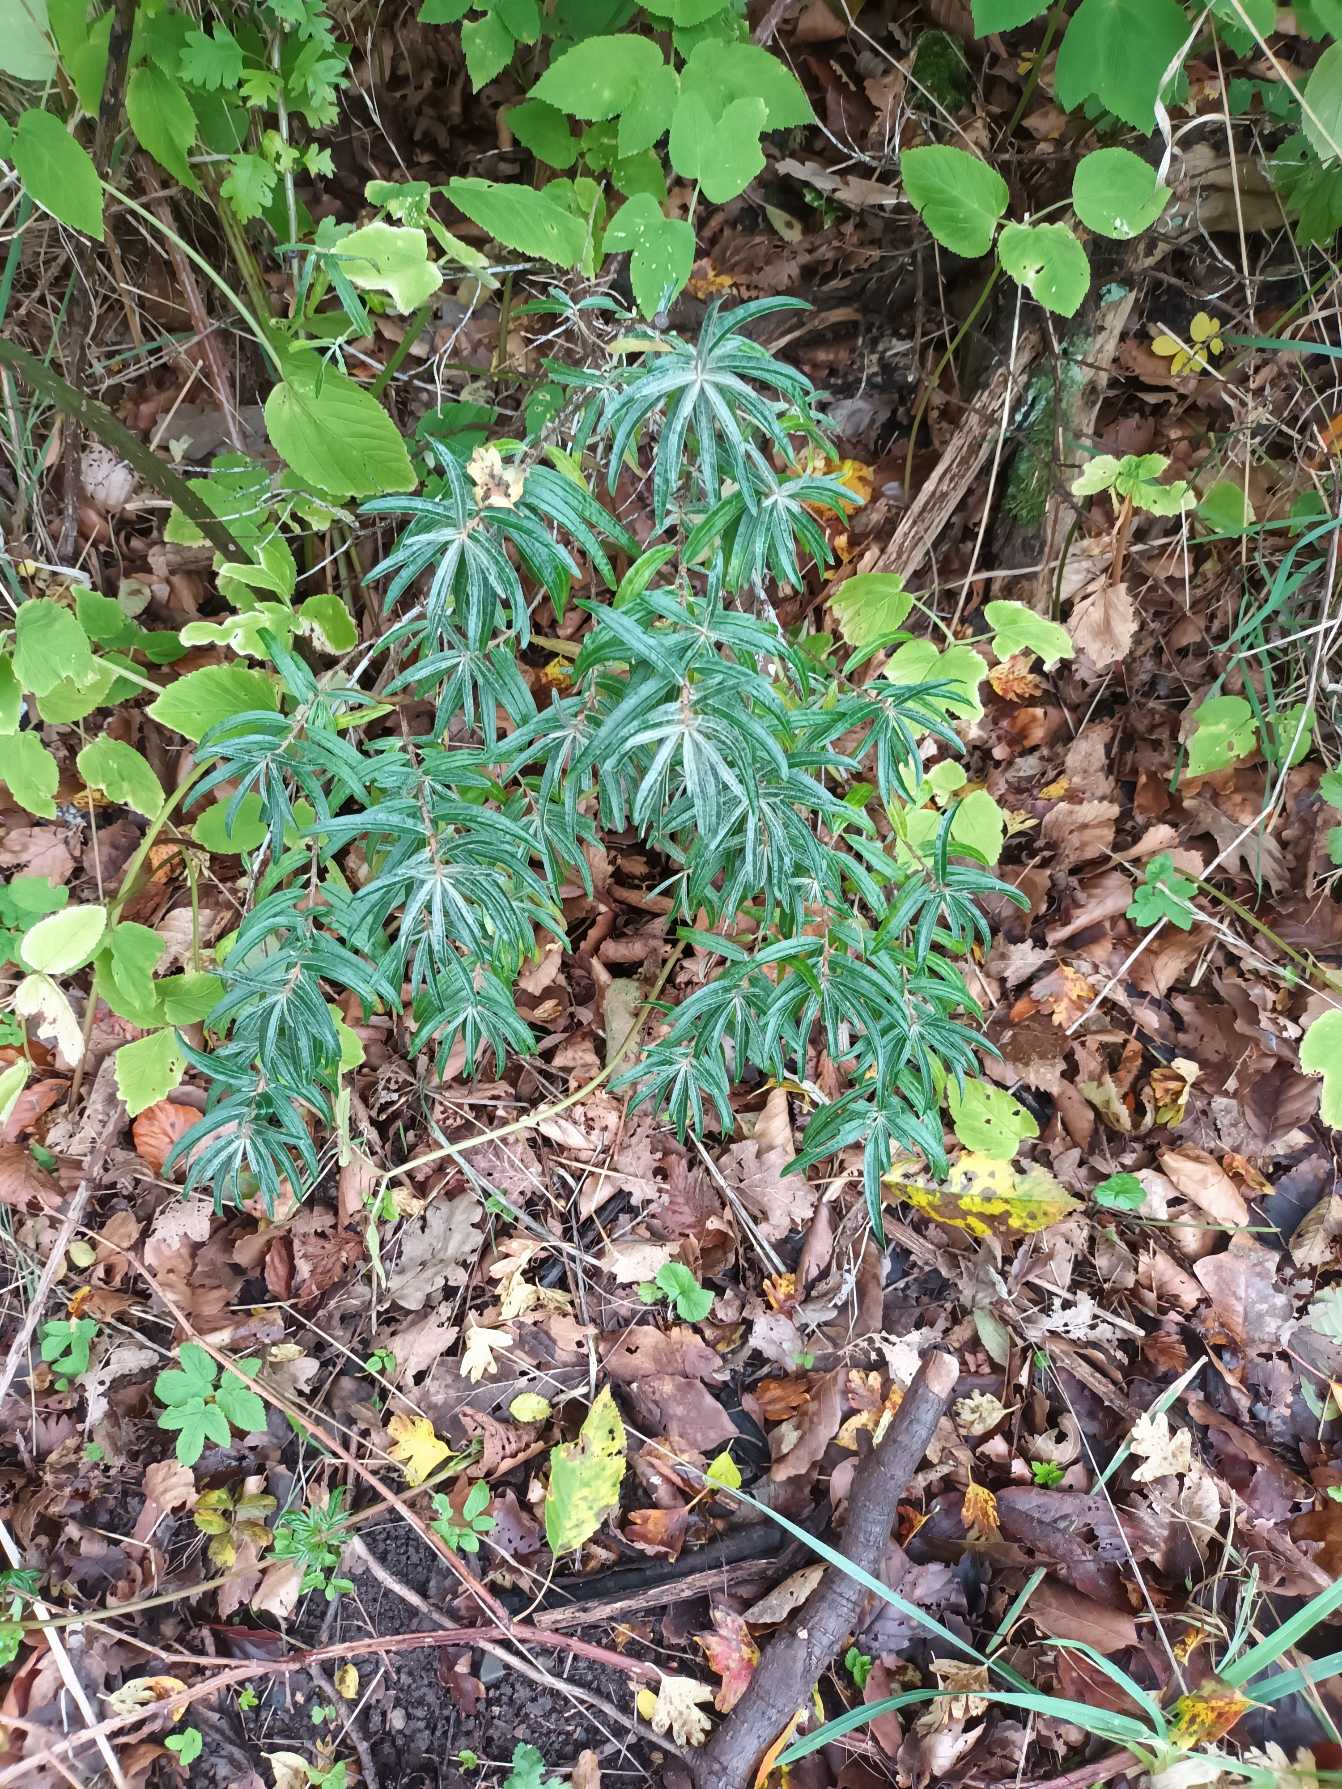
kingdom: Plantae
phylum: Tracheophyta
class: Magnoliopsida
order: Rosales
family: Elaeagnaceae
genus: Hippophae
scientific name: Hippophae rhamnoides
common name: Havtorn
